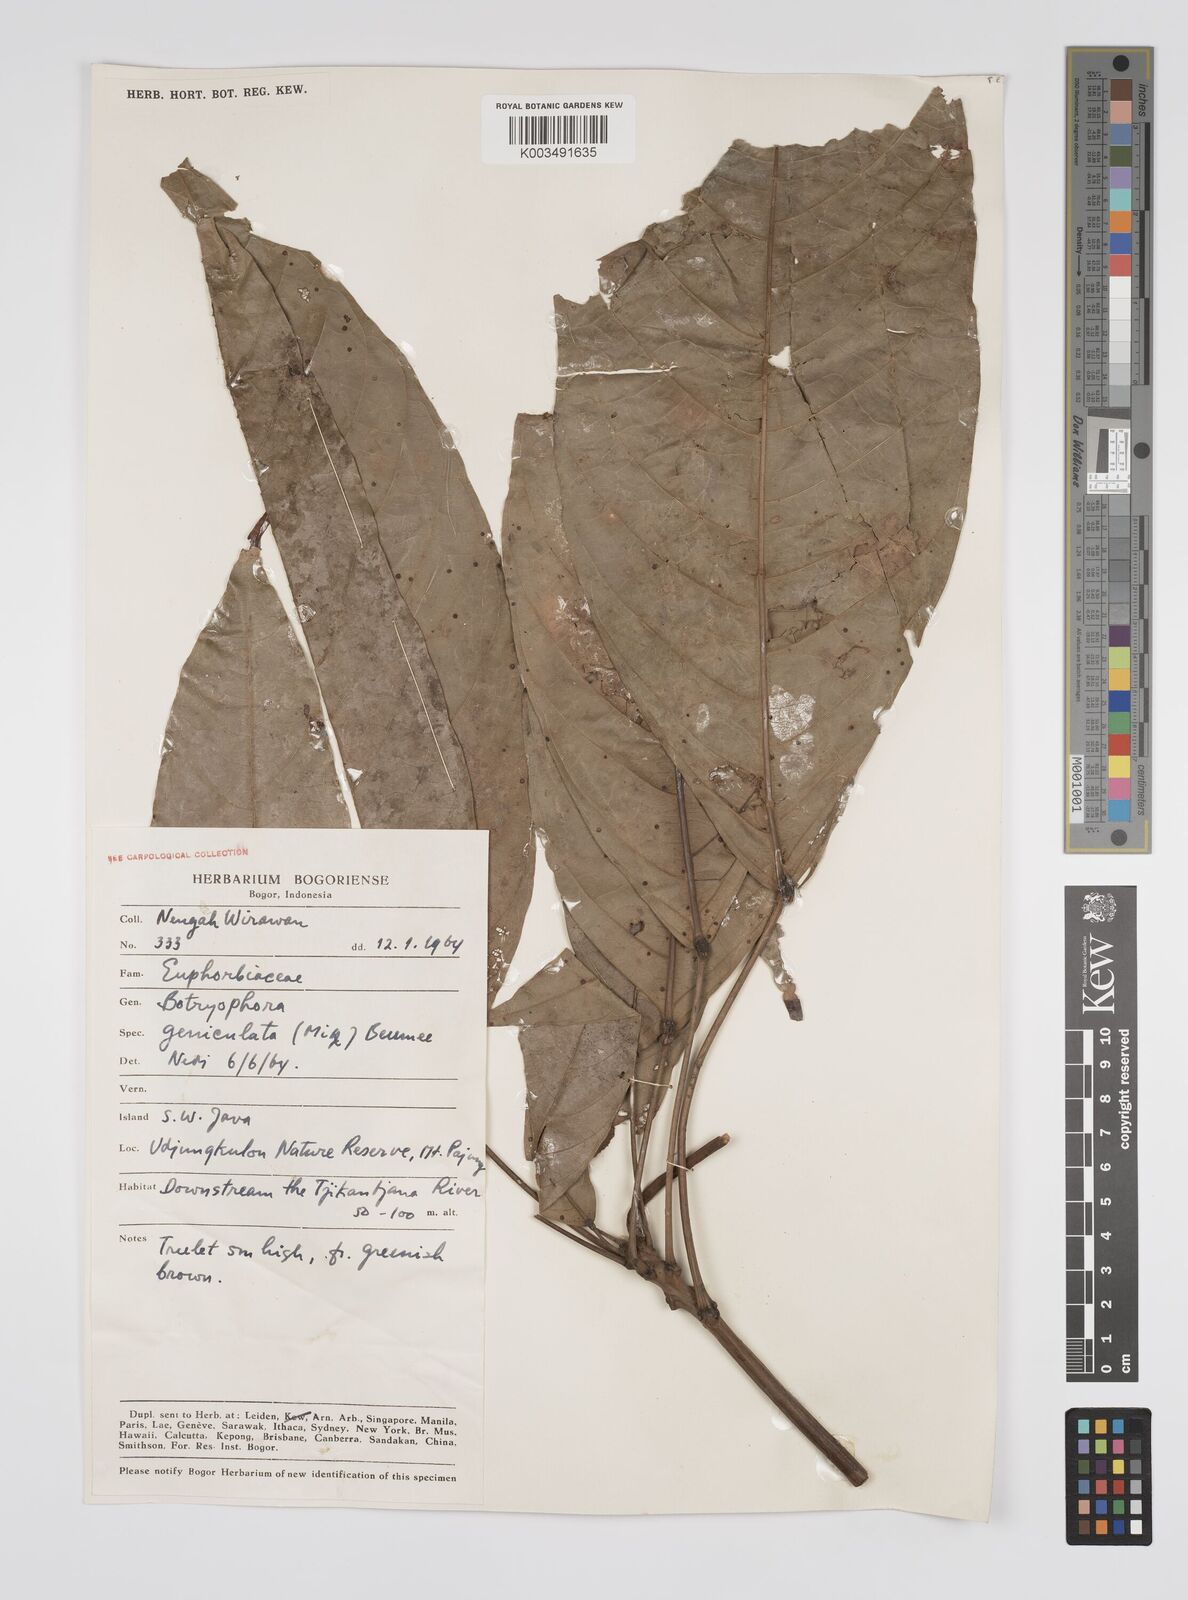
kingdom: Plantae
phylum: Tracheophyta
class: Magnoliopsida
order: Malpighiales
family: Euphorbiaceae
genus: Botryophora
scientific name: Botryophora geniculata
